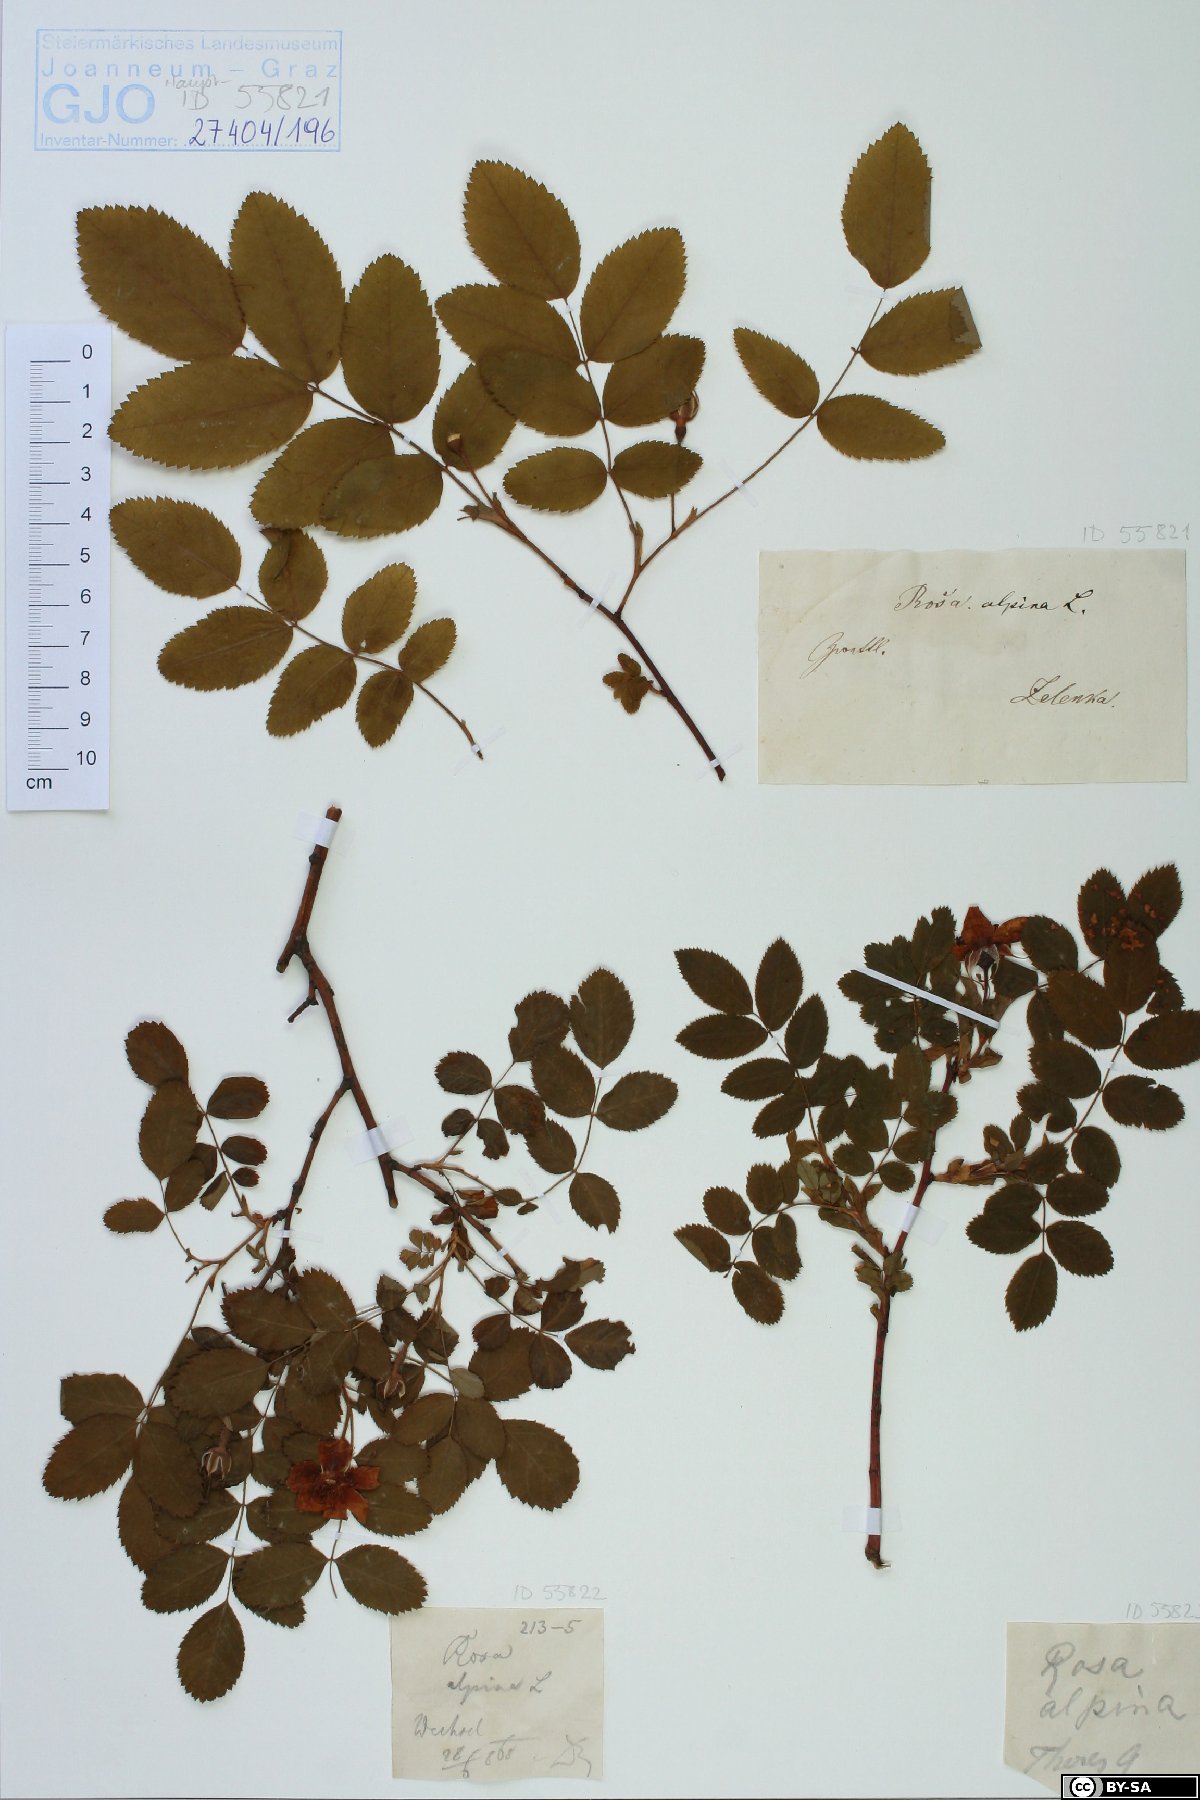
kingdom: Plantae
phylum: Tracheophyta
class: Magnoliopsida
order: Rosales
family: Rosaceae
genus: Rosa
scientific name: Rosa pendulina
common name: Alpine rose
